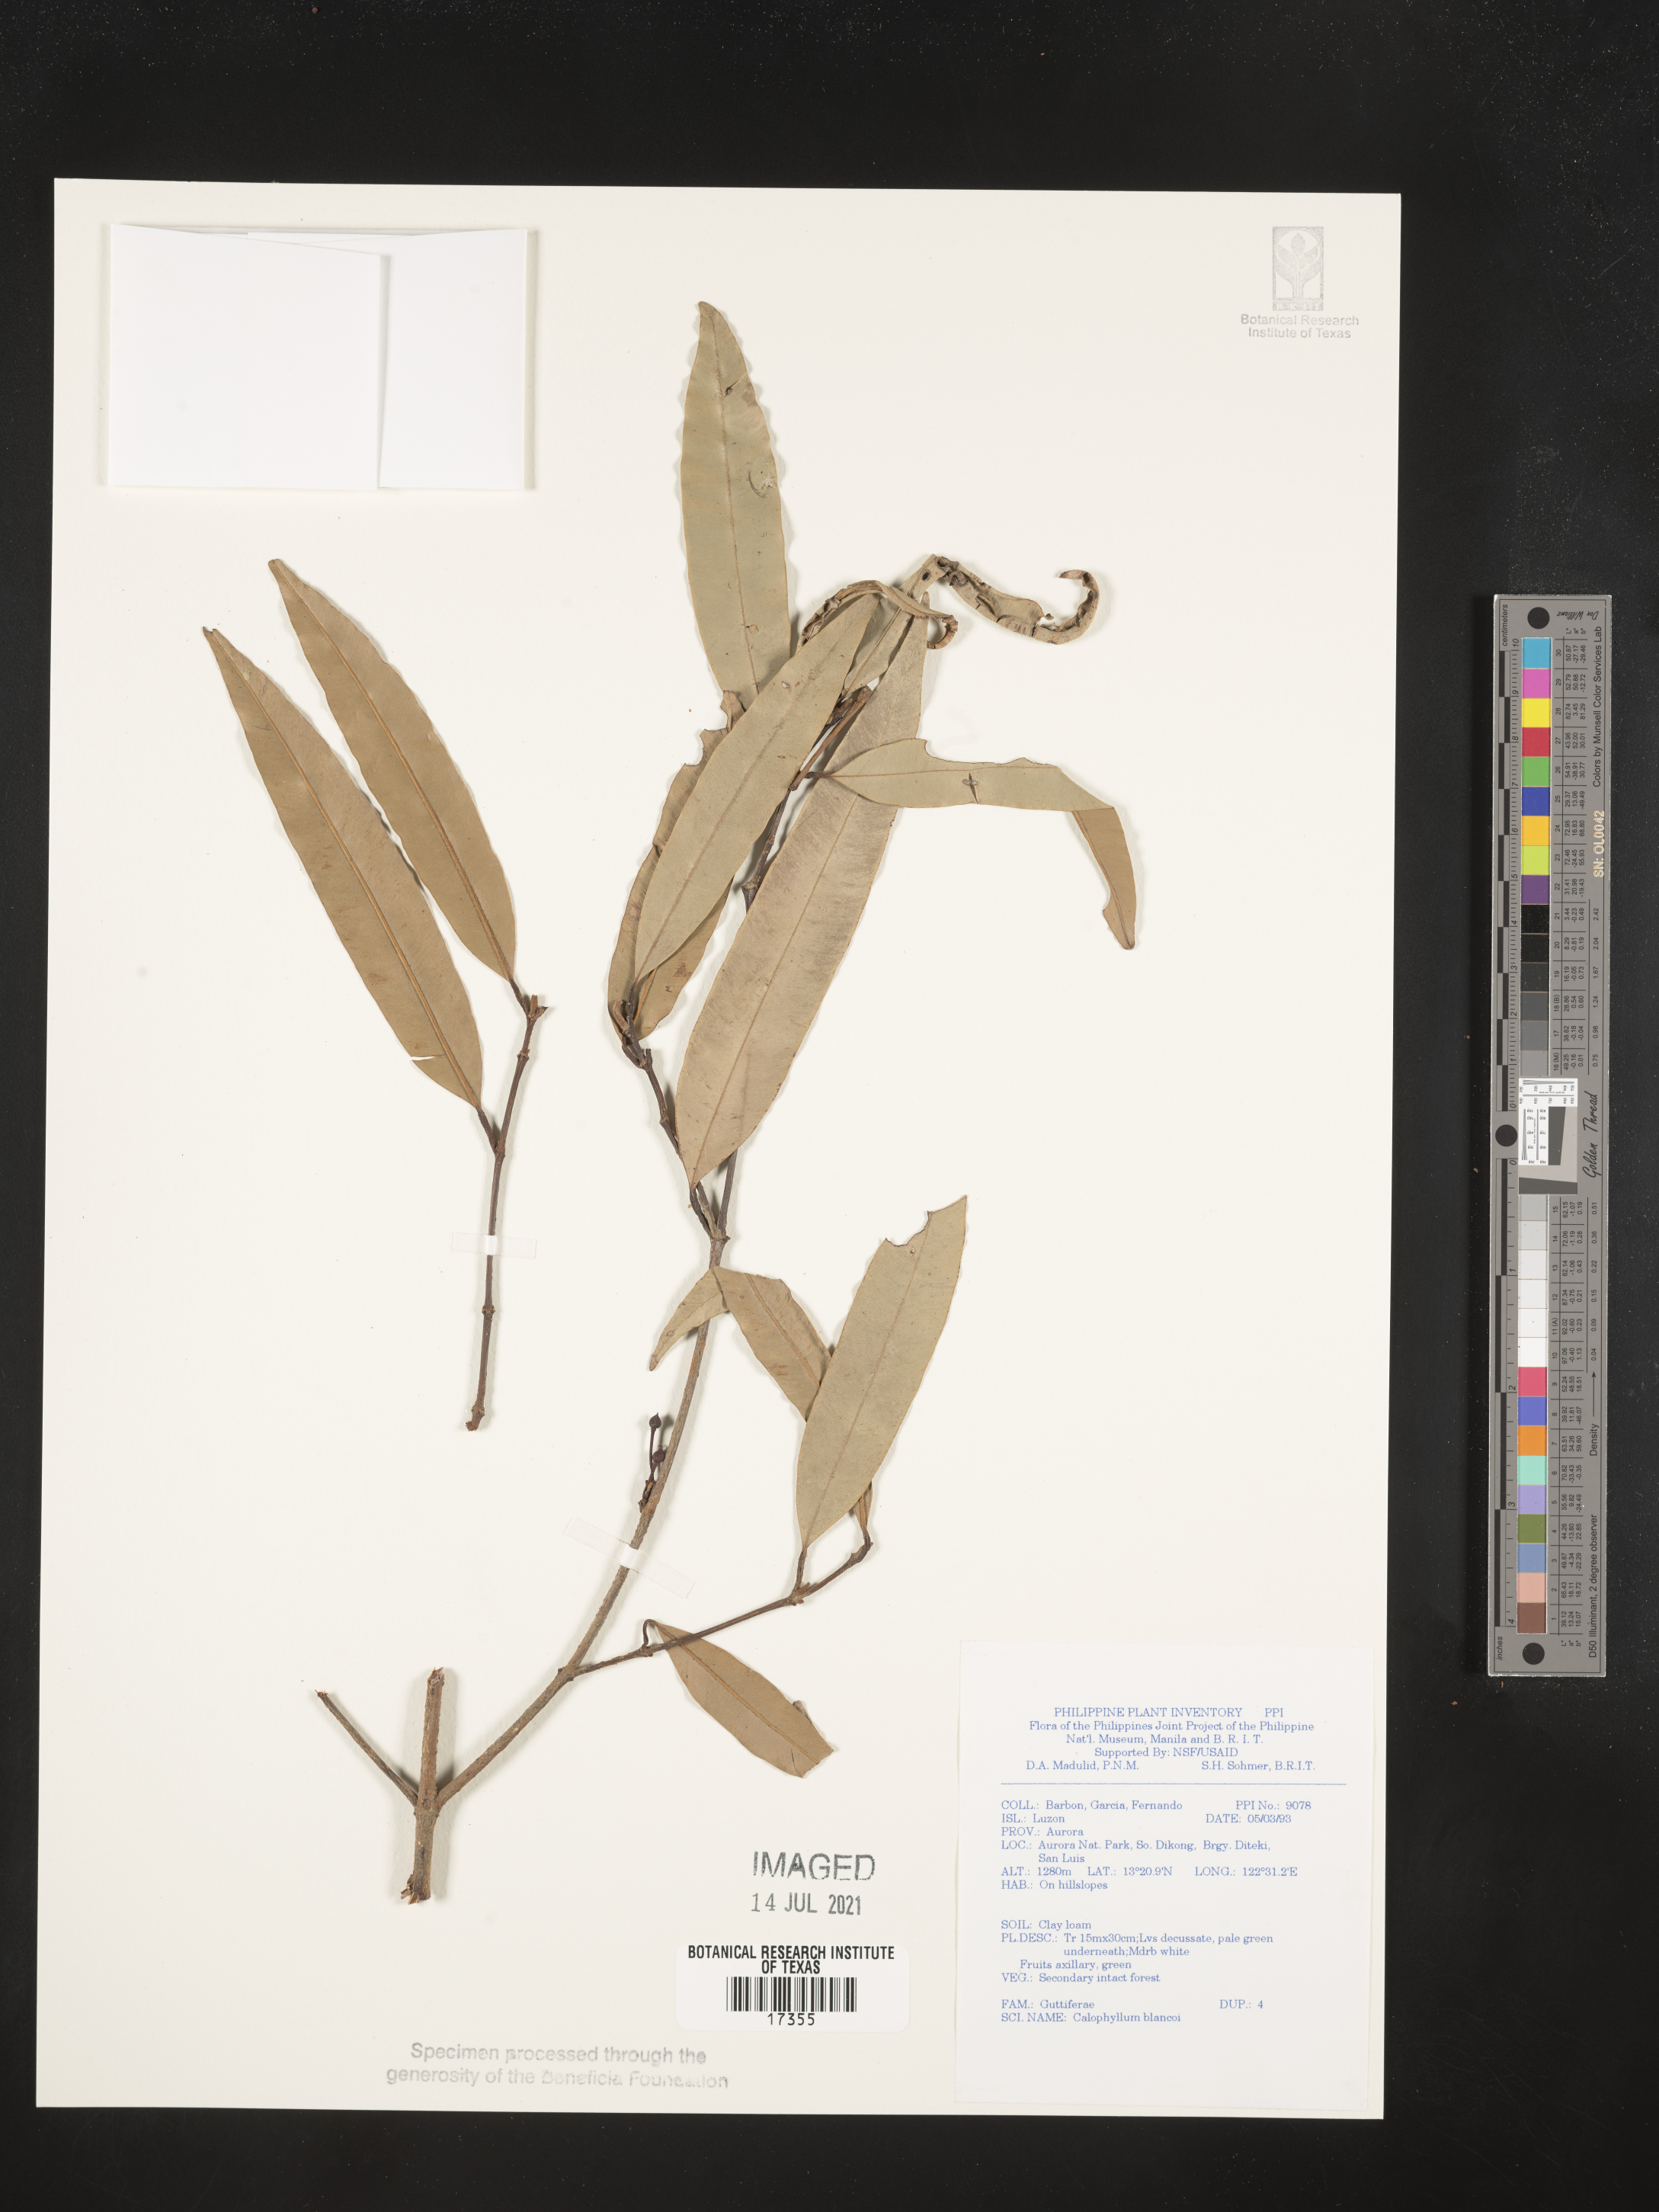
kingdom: Plantae
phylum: Tracheophyta
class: Magnoliopsida
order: Malpighiales
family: Calophyllaceae
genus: Calophyllum
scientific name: Calophyllum blancoi
